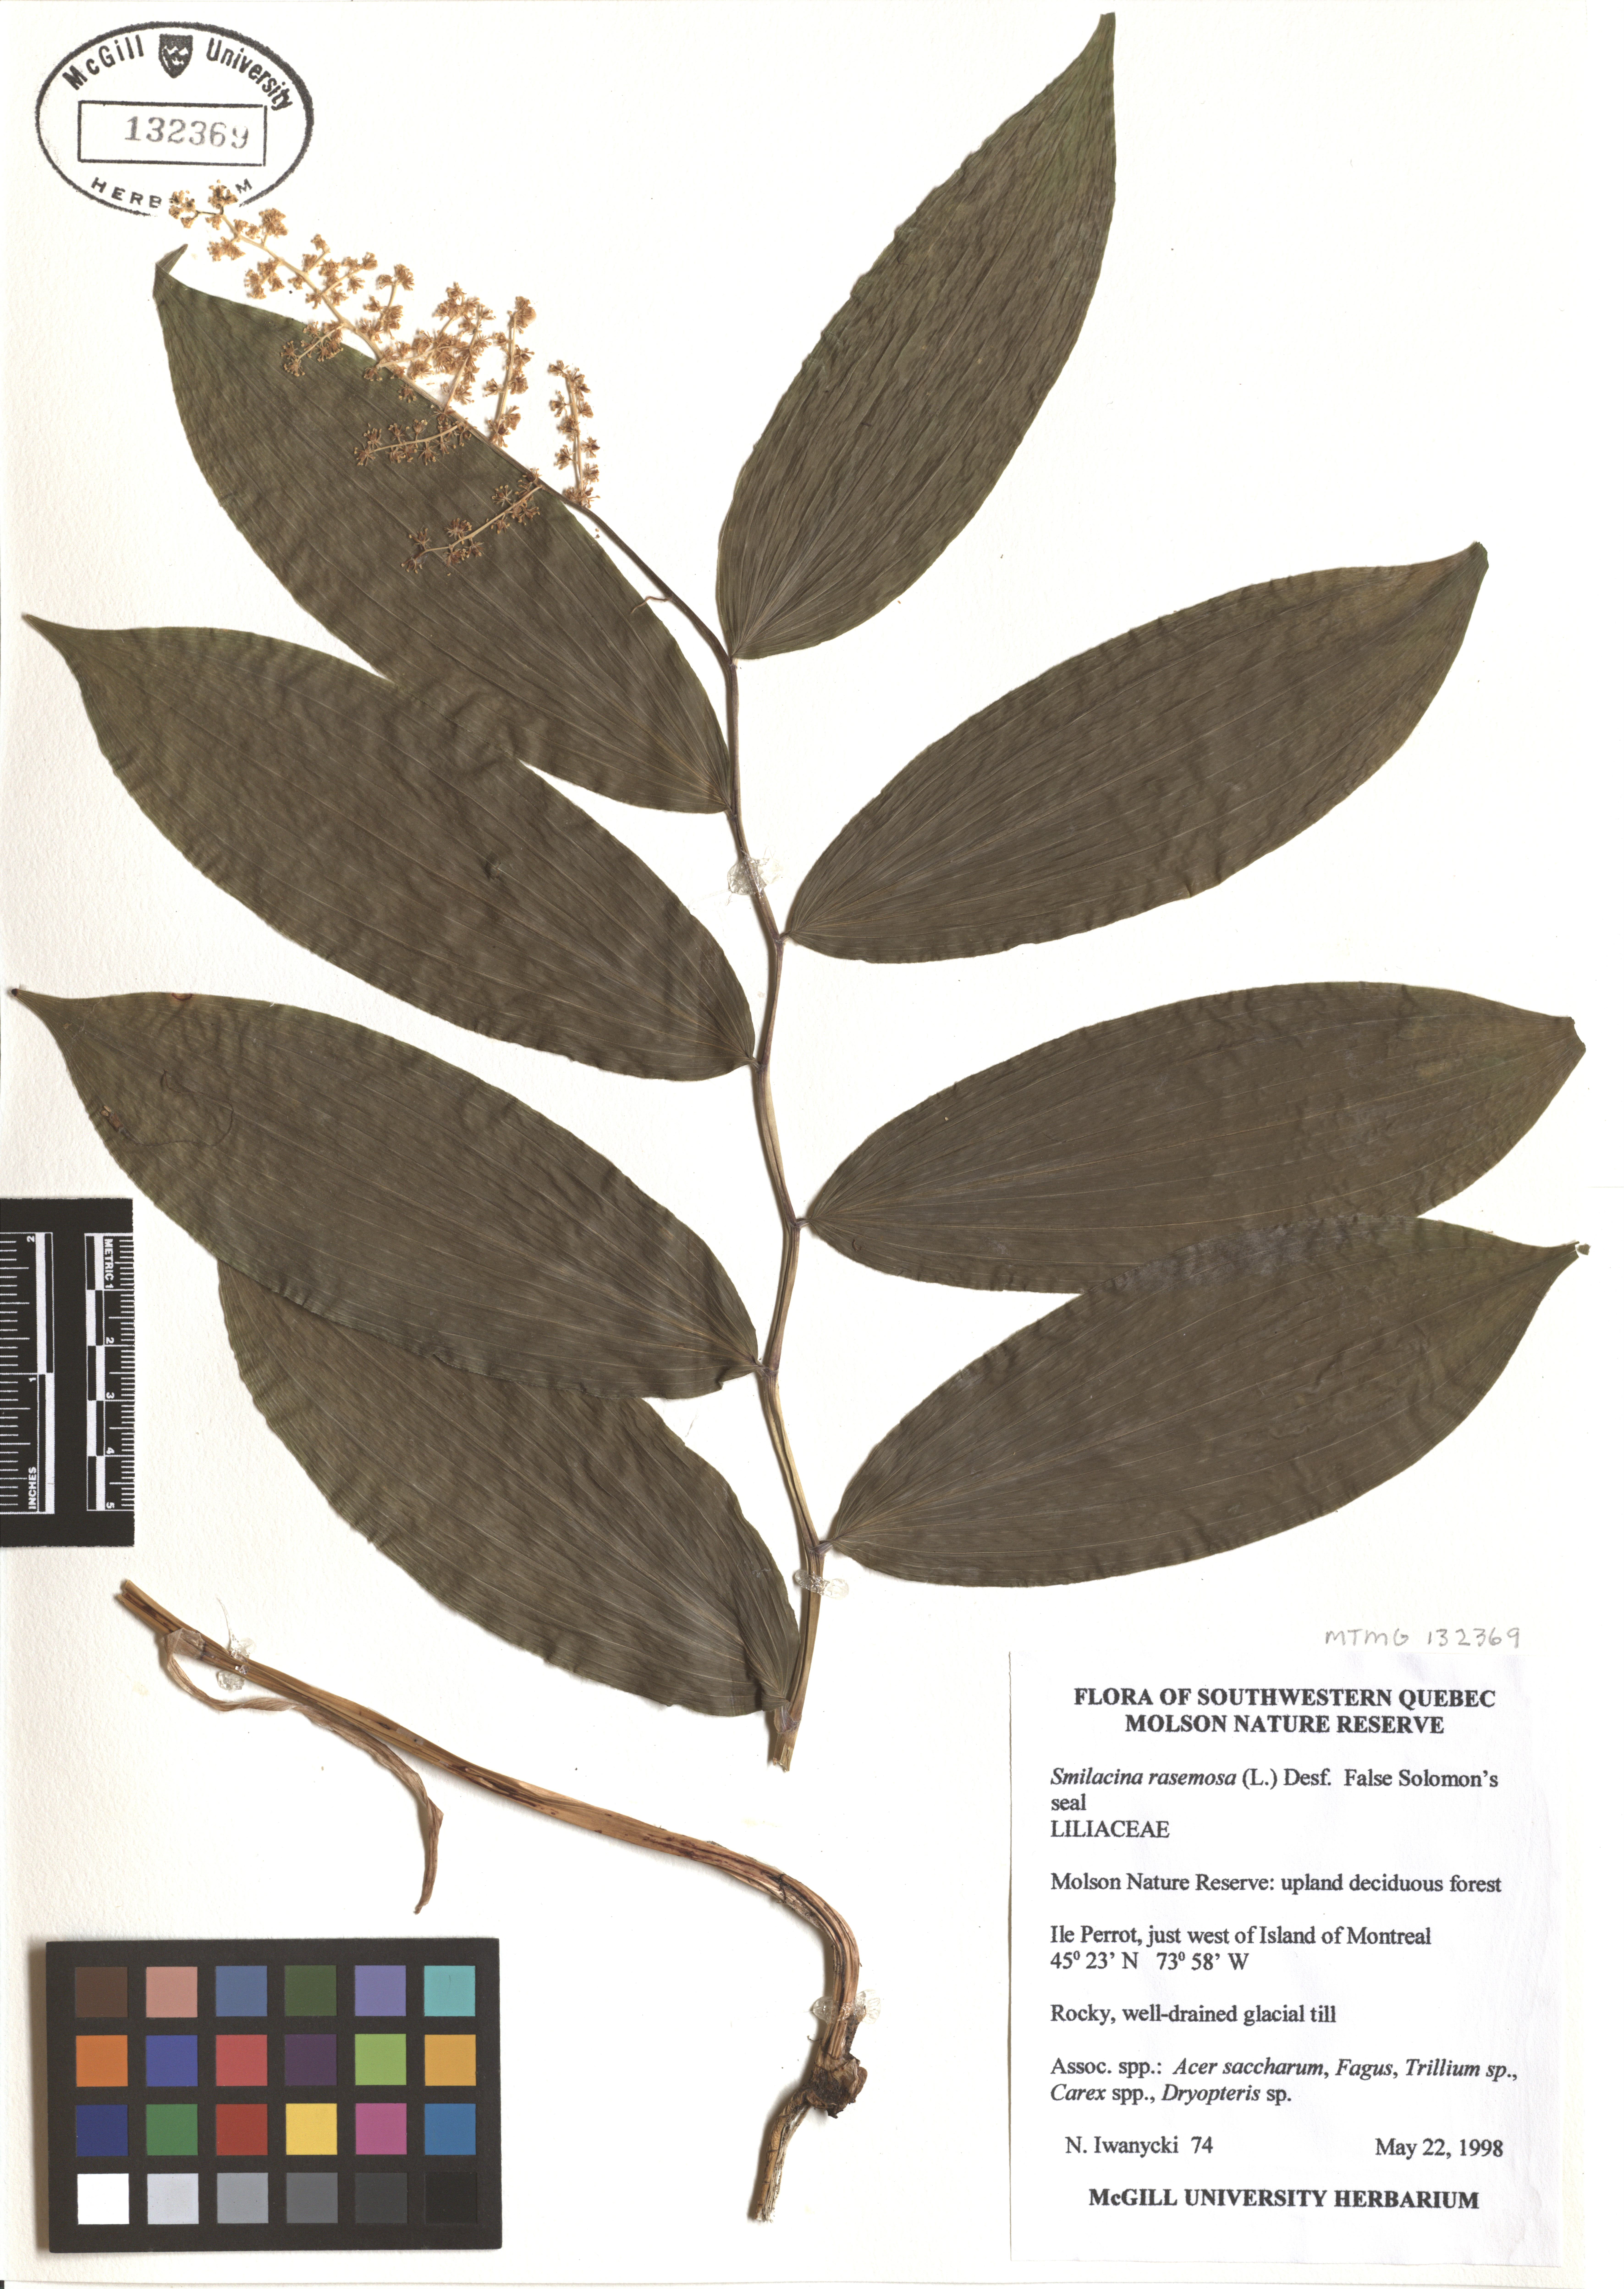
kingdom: Plantae
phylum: Tracheophyta
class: Liliopsida
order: Asparagales
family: Asparagaceae
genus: Maianthemum
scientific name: Maianthemum racemosum
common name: False spikenard
